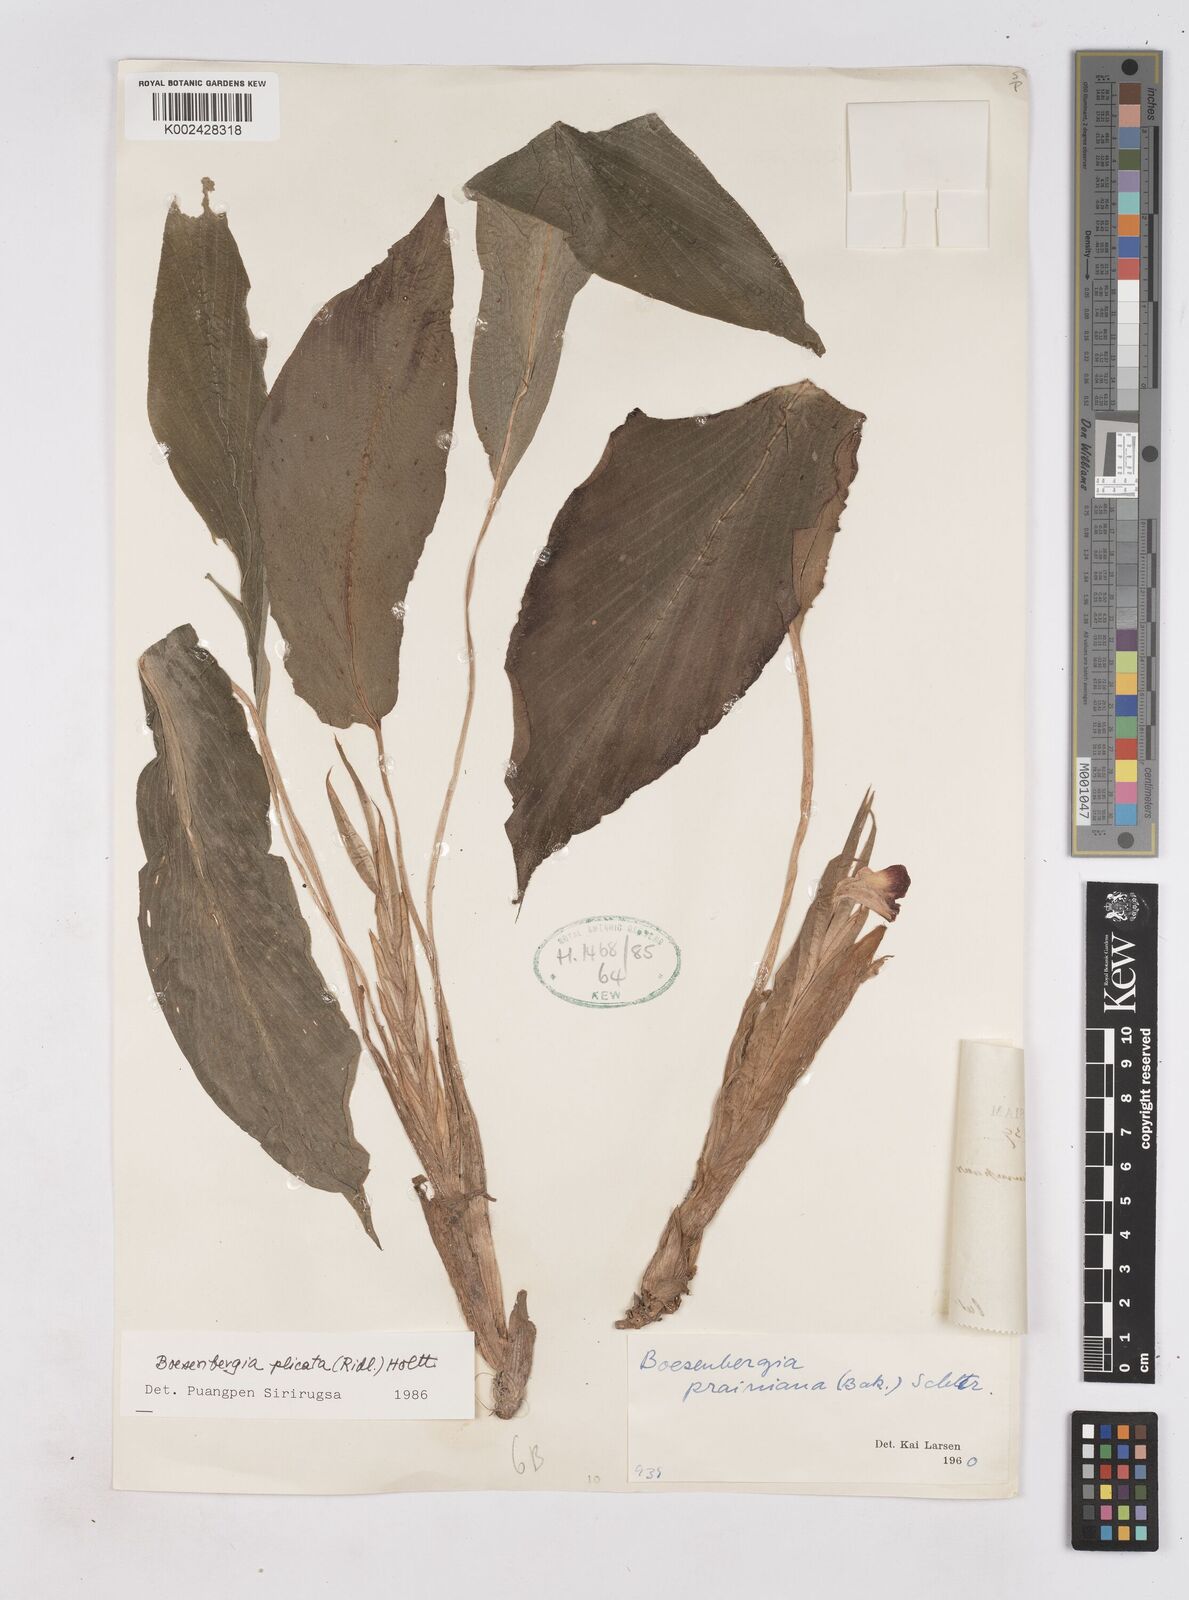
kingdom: Plantae
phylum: Tracheophyta
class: Liliopsida
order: Zingiberales
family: Zingiberaceae
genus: Boesenbergia
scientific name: Boesenbergia plicata
